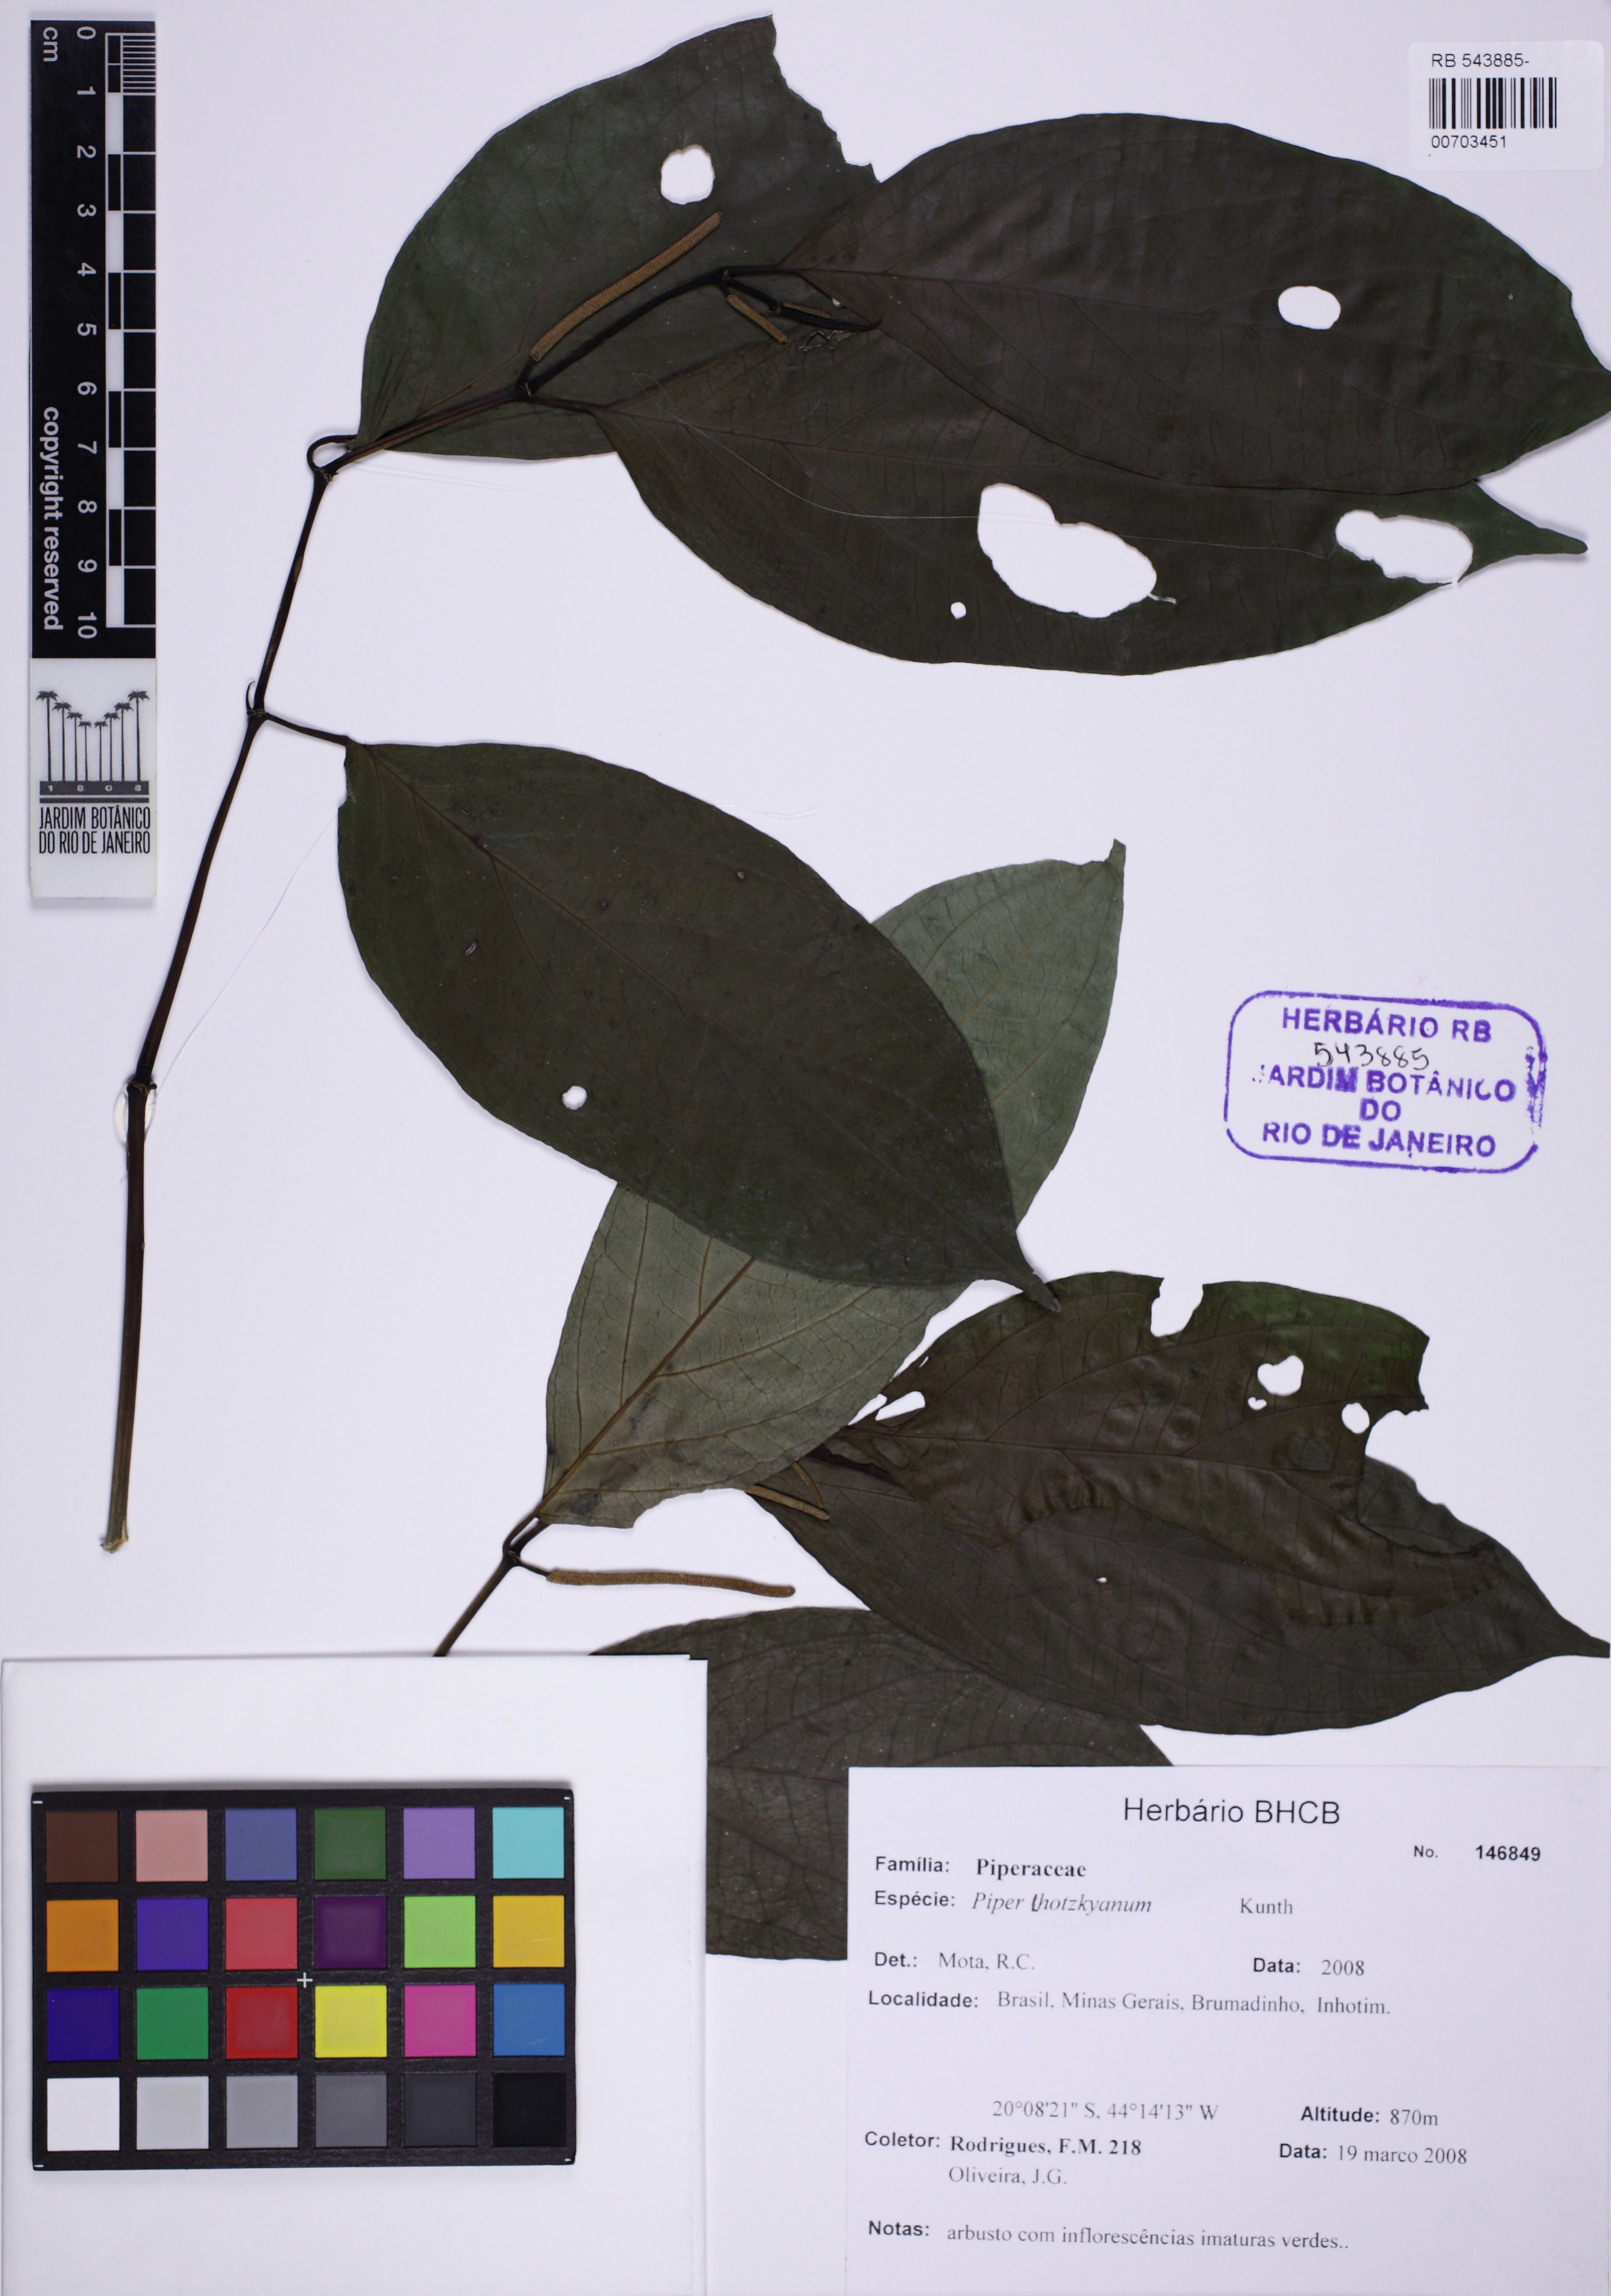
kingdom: Plantae
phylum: Tracheophyta
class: Magnoliopsida
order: Piperales
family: Piperaceae
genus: Piper
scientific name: Piper lhotzkyanum
